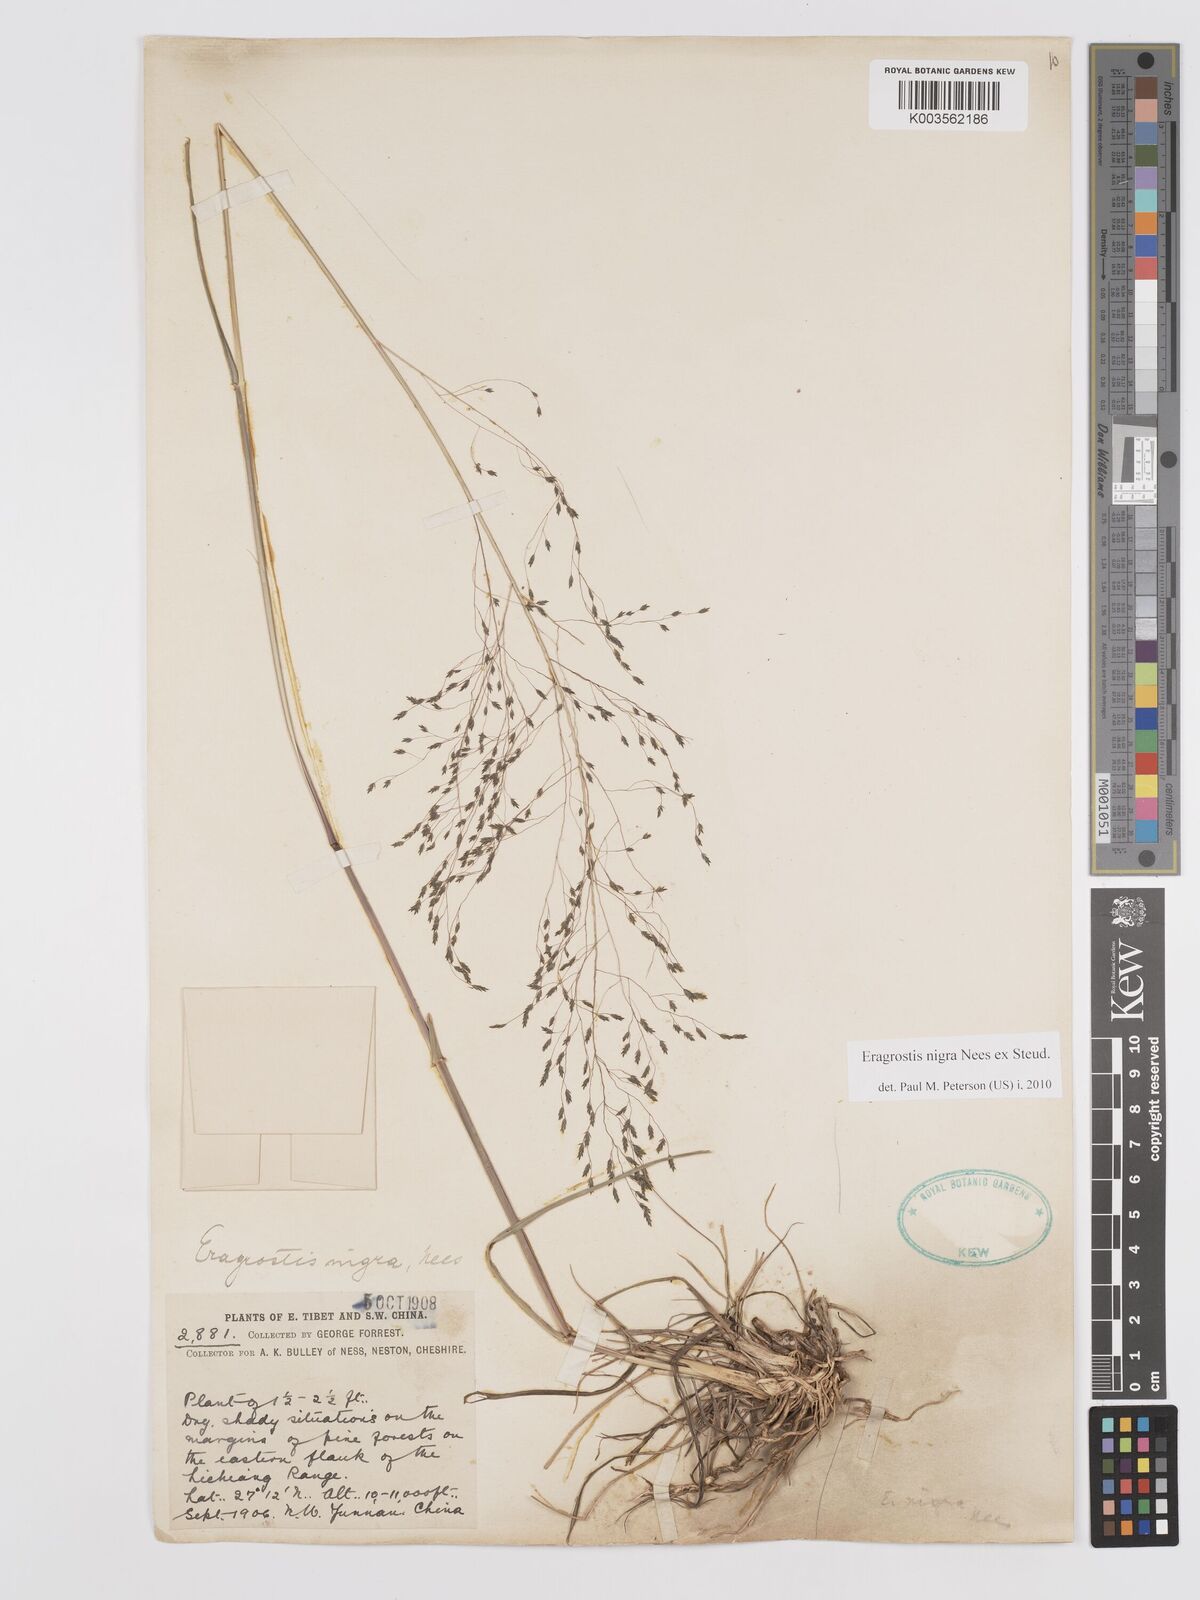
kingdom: Plantae
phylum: Tracheophyta
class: Liliopsida
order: Poales
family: Poaceae
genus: Eragrostis
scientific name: Eragrostis nigra
